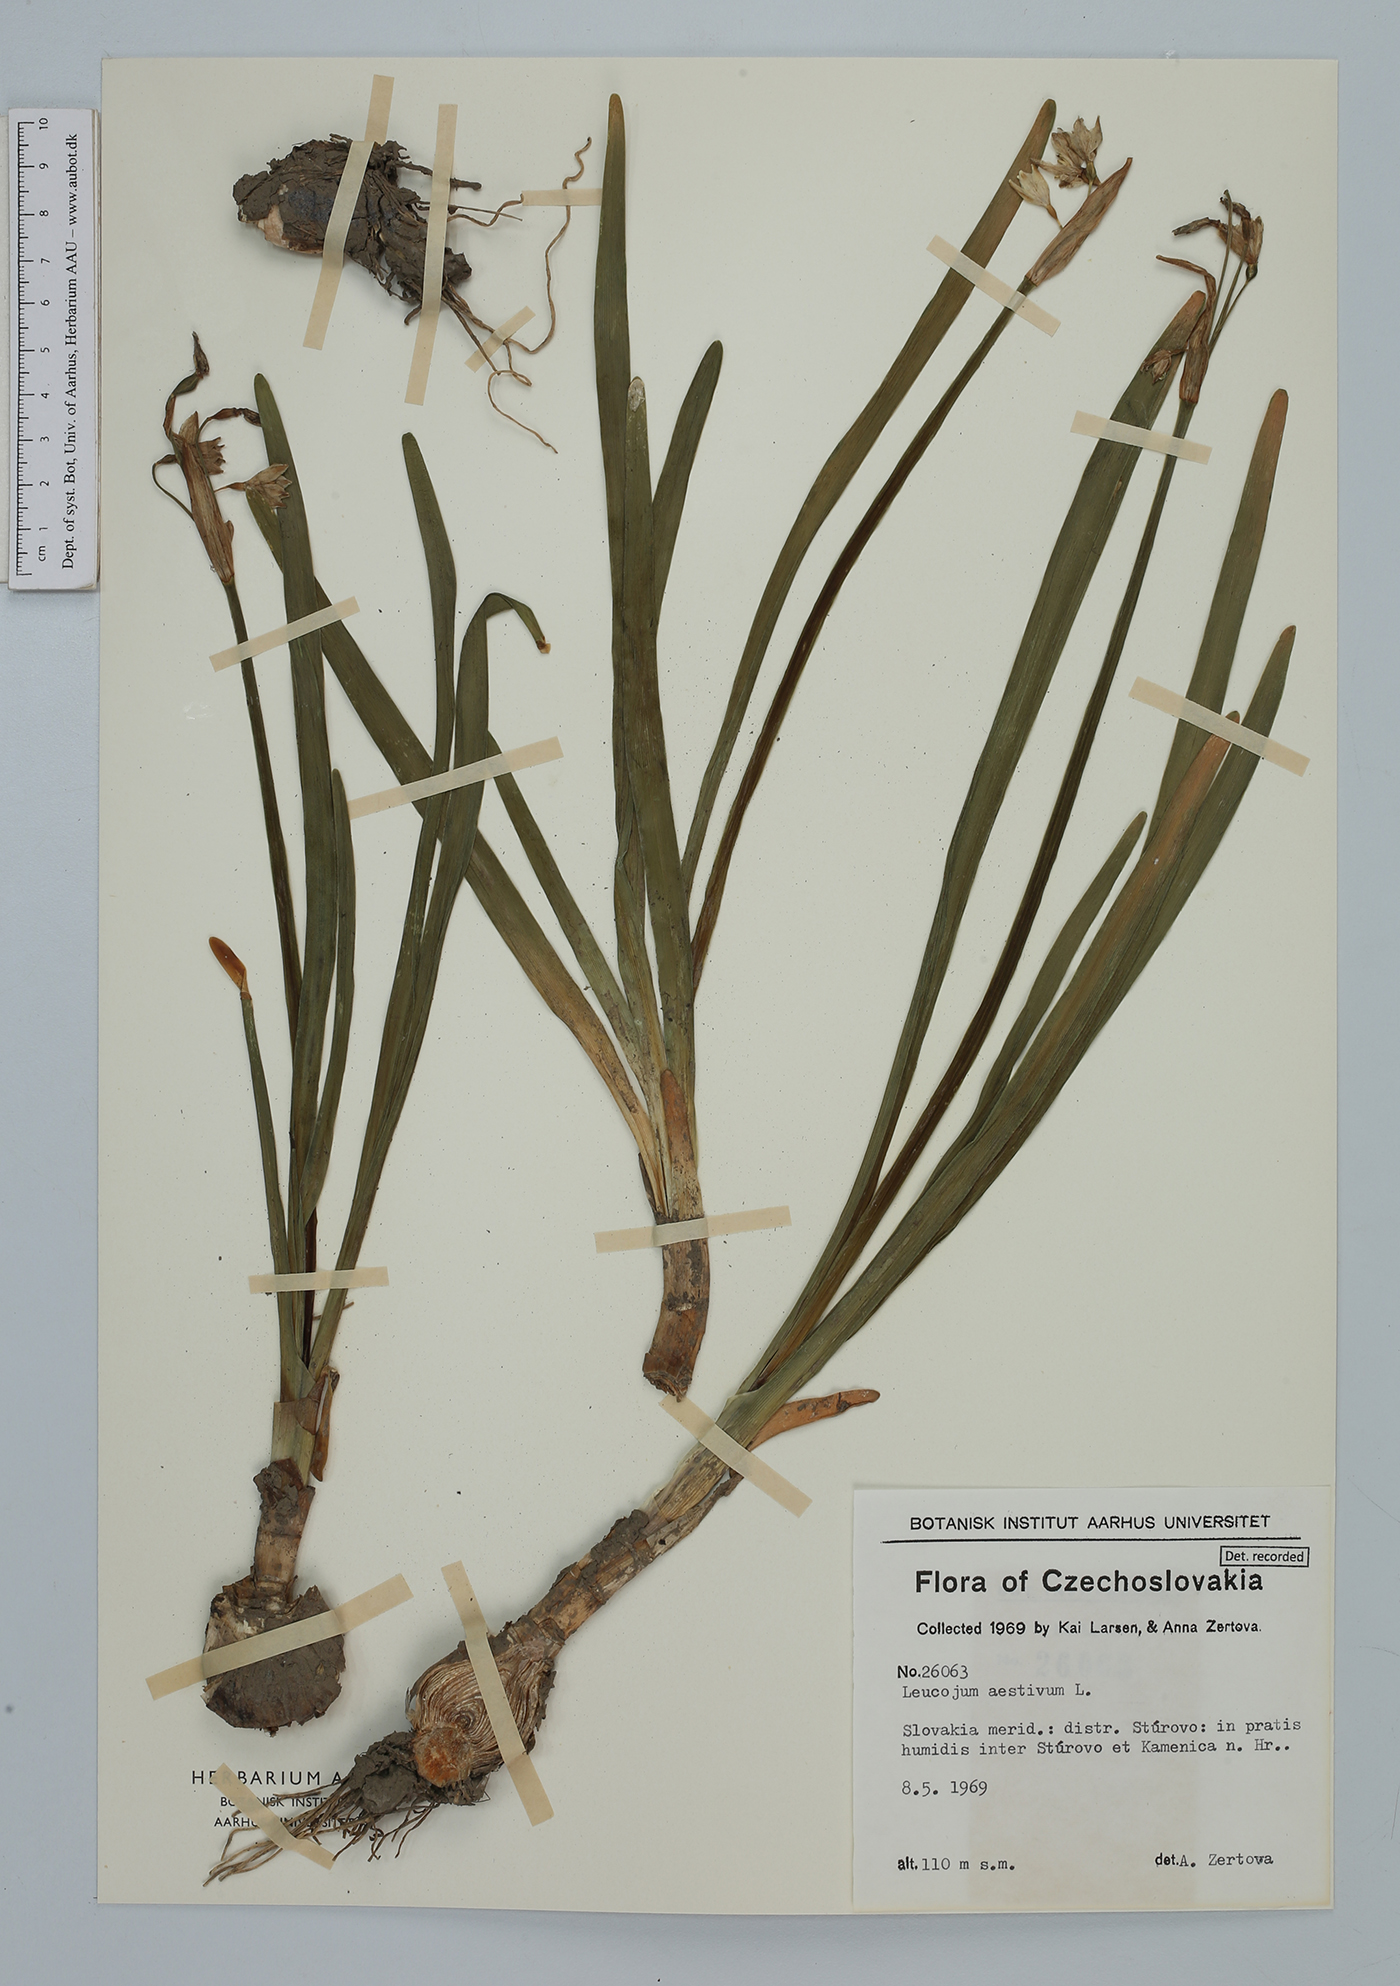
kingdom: Plantae
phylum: Tracheophyta
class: Liliopsida
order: Asparagales
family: Amaryllidaceae
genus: Leucojum
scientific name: Leucojum aestivum
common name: Summer snowflake
